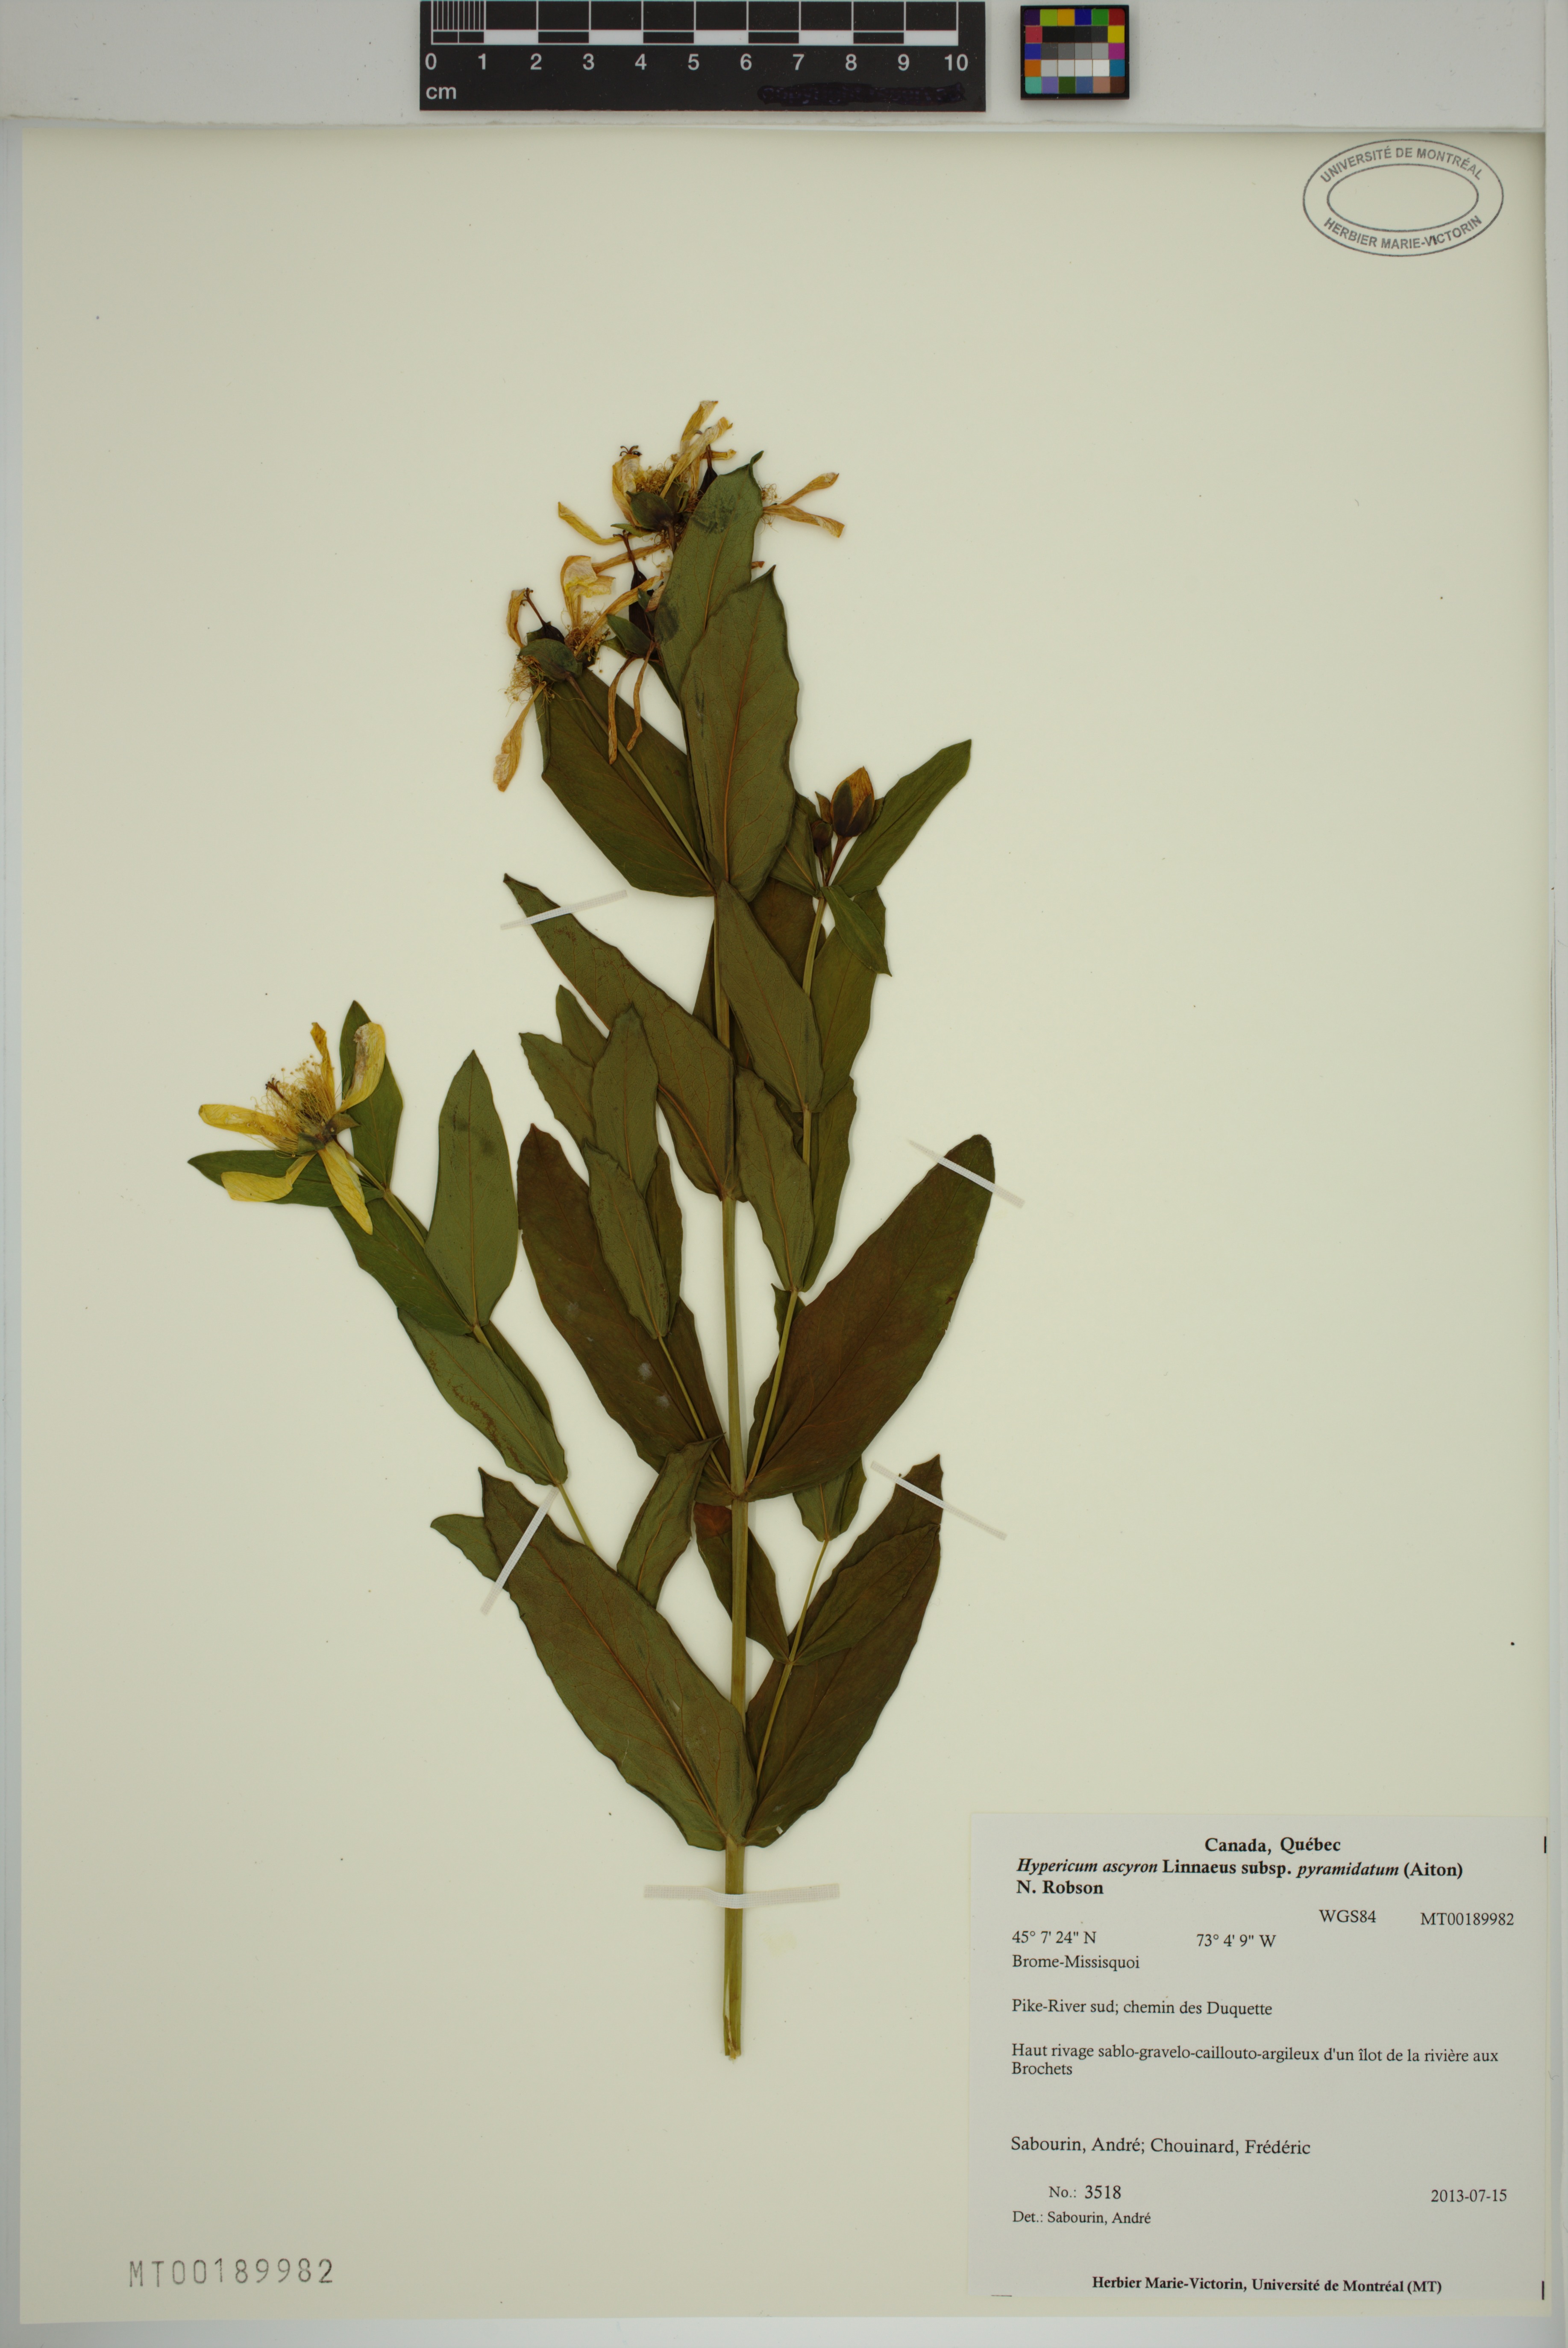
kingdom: Plantae
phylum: Tracheophyta
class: Magnoliopsida
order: Malpighiales
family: Hypericaceae
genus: Hypericum
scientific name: Hypericum ascyron
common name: Giant st. john's-wort
